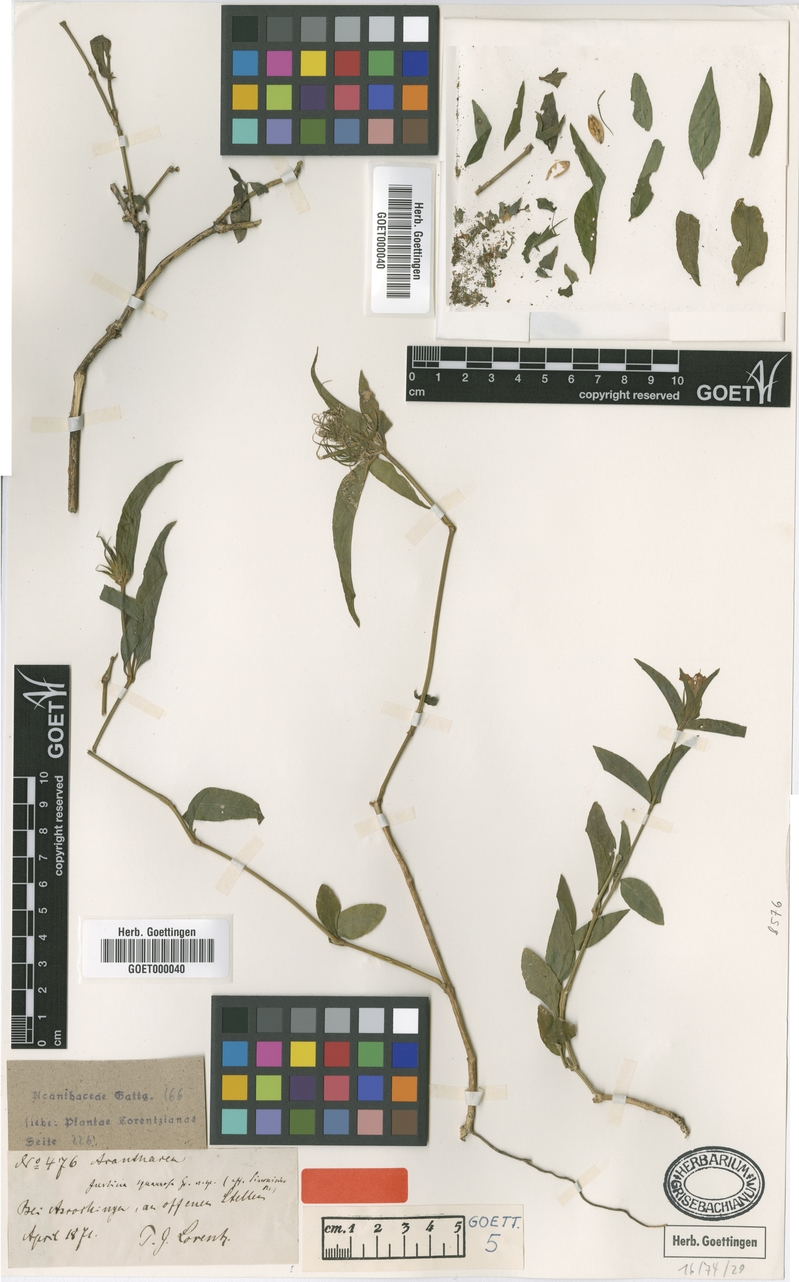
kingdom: Plantae
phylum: Tracheophyta
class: Magnoliopsida
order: Lamiales
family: Acanthaceae
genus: Justicia
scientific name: Justicia squarrosa
